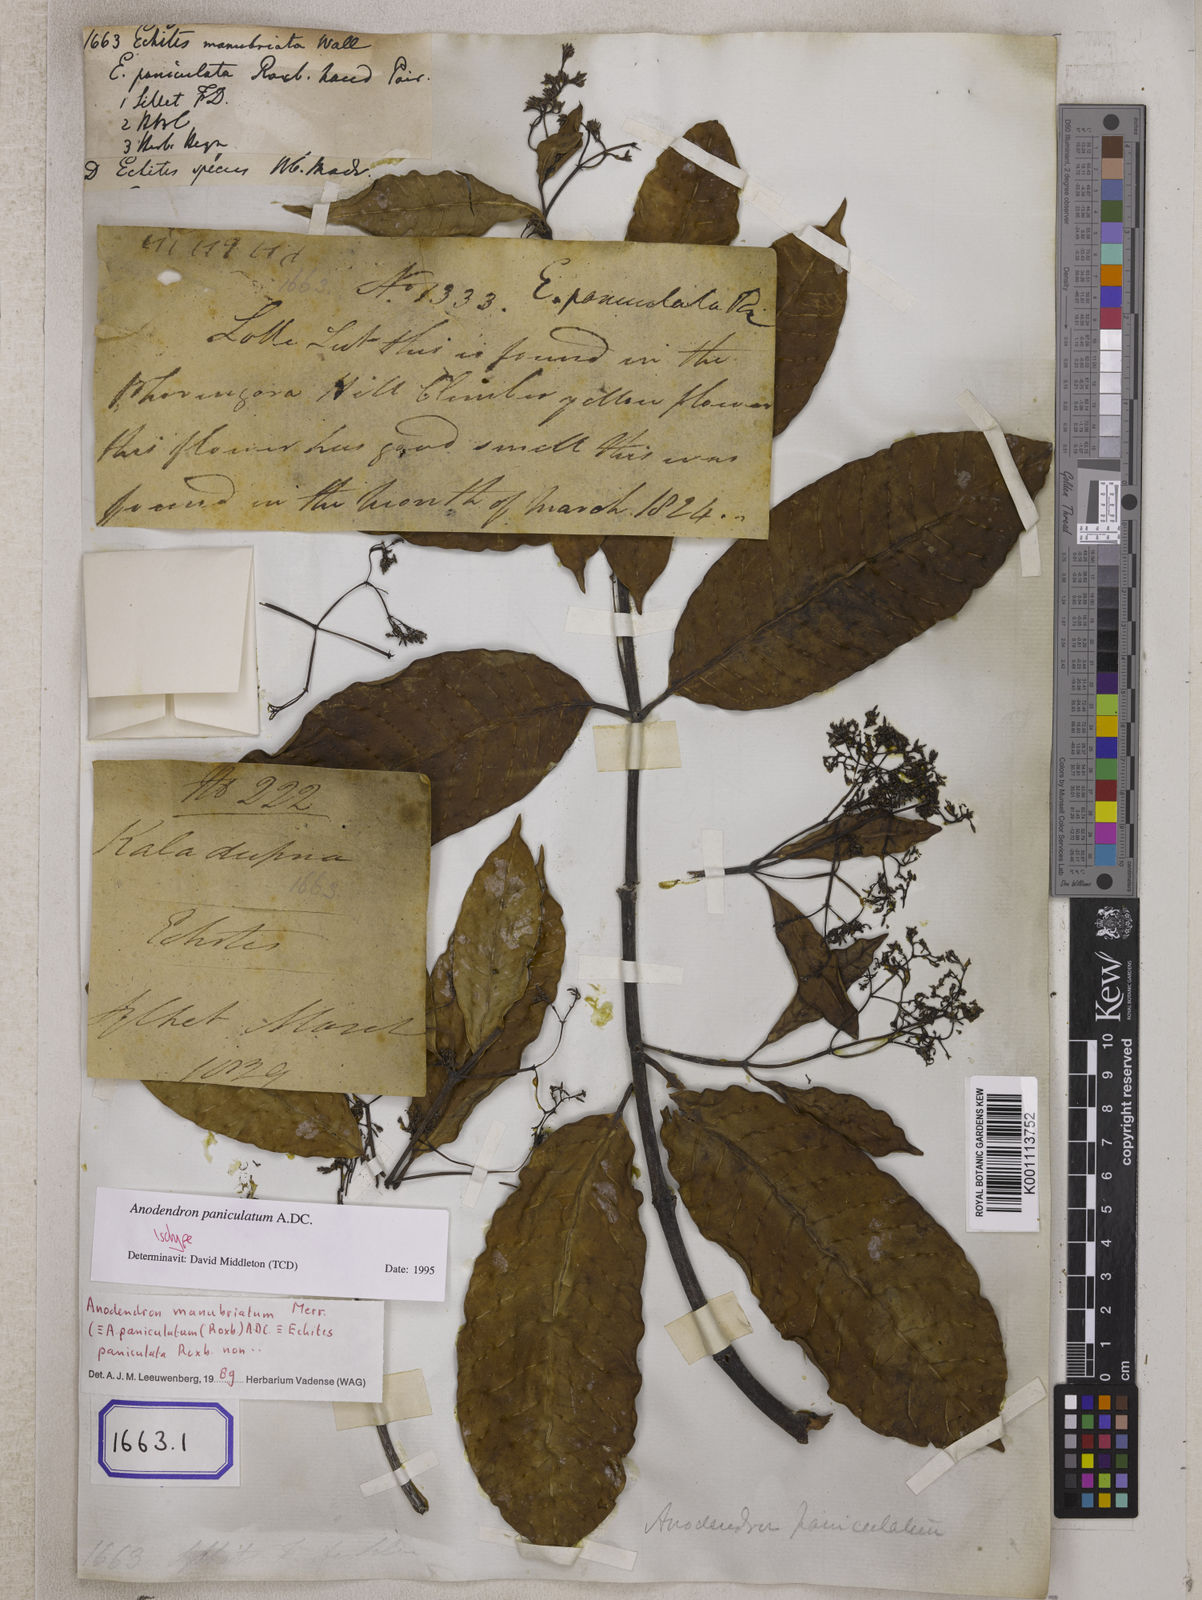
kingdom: Plantae
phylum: Tracheophyta
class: Magnoliopsida
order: Gentianales
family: Apocynaceae
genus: Echites
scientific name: Echites
